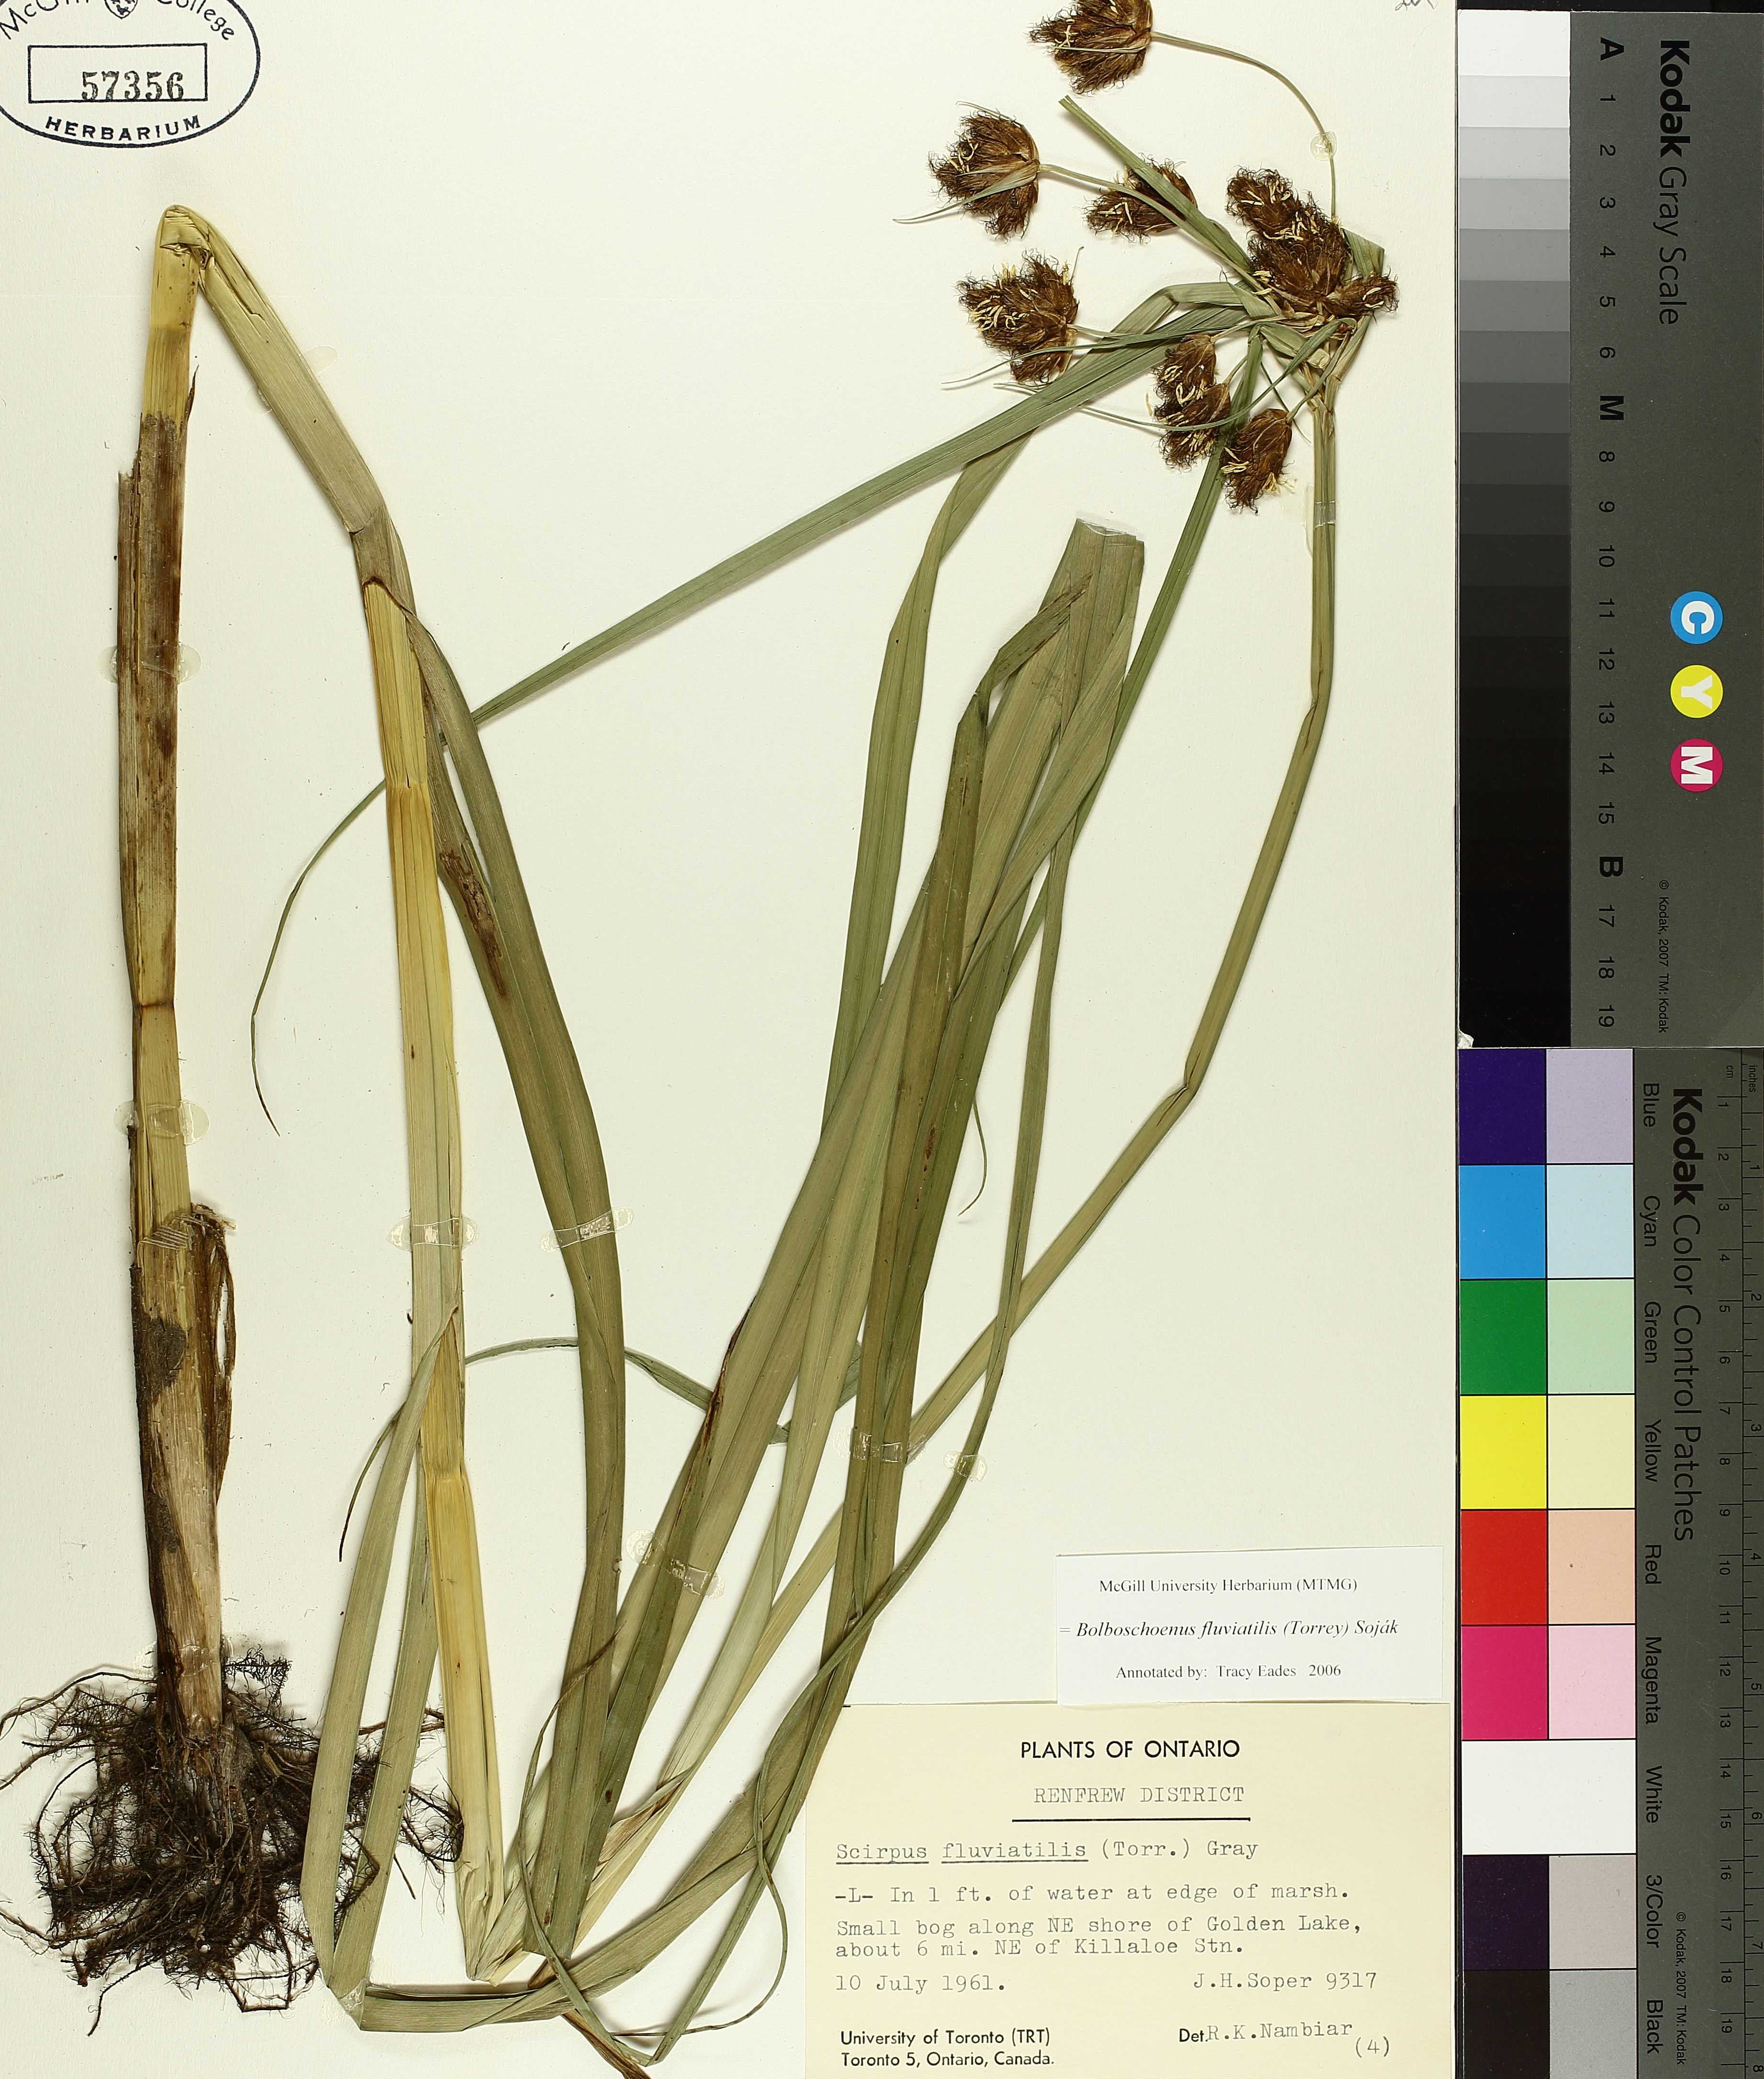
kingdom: Plantae
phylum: Tracheophyta
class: Liliopsida
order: Poales
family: Cyperaceae
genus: Bolboschoenus
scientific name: Bolboschoenus fluviatilis
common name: River bulrush
